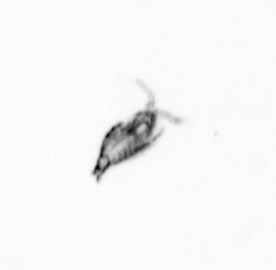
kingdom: Animalia
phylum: Arthropoda
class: Copepoda
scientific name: Copepoda
